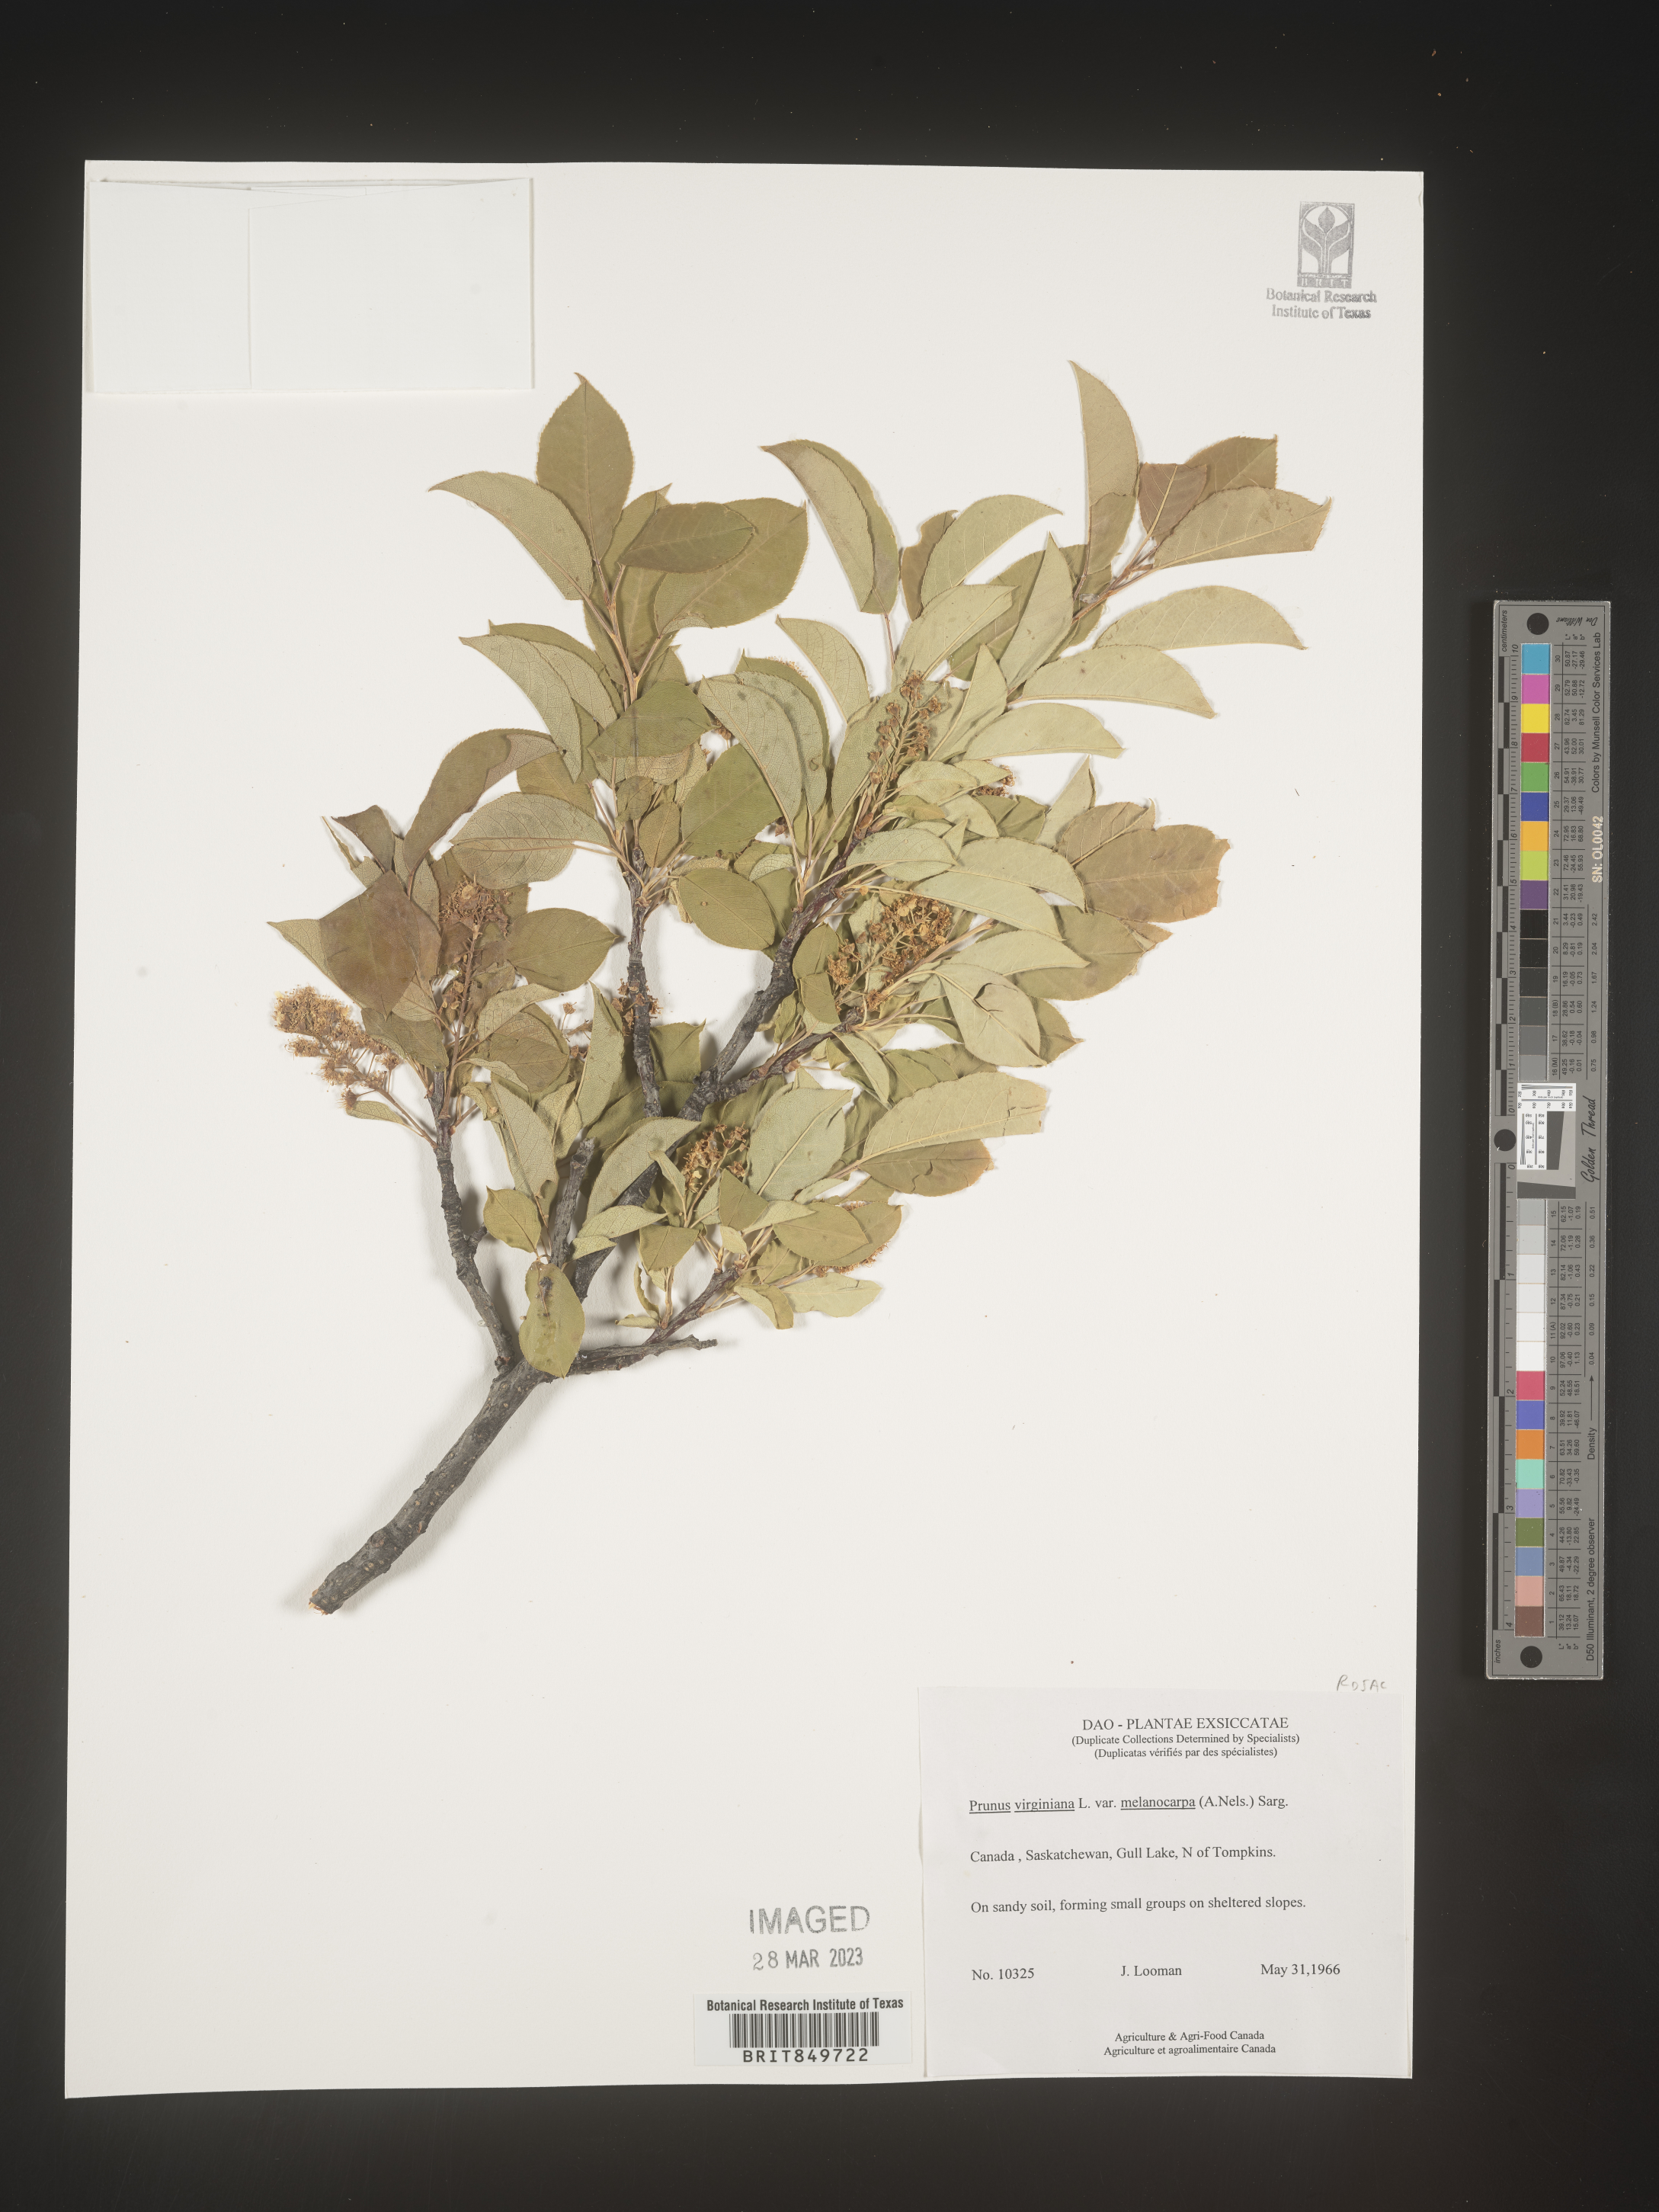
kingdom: Plantae
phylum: Tracheophyta
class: Magnoliopsida
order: Rosales
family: Rosaceae
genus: Prunus
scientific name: Prunus virginiana
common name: Chokecherry
